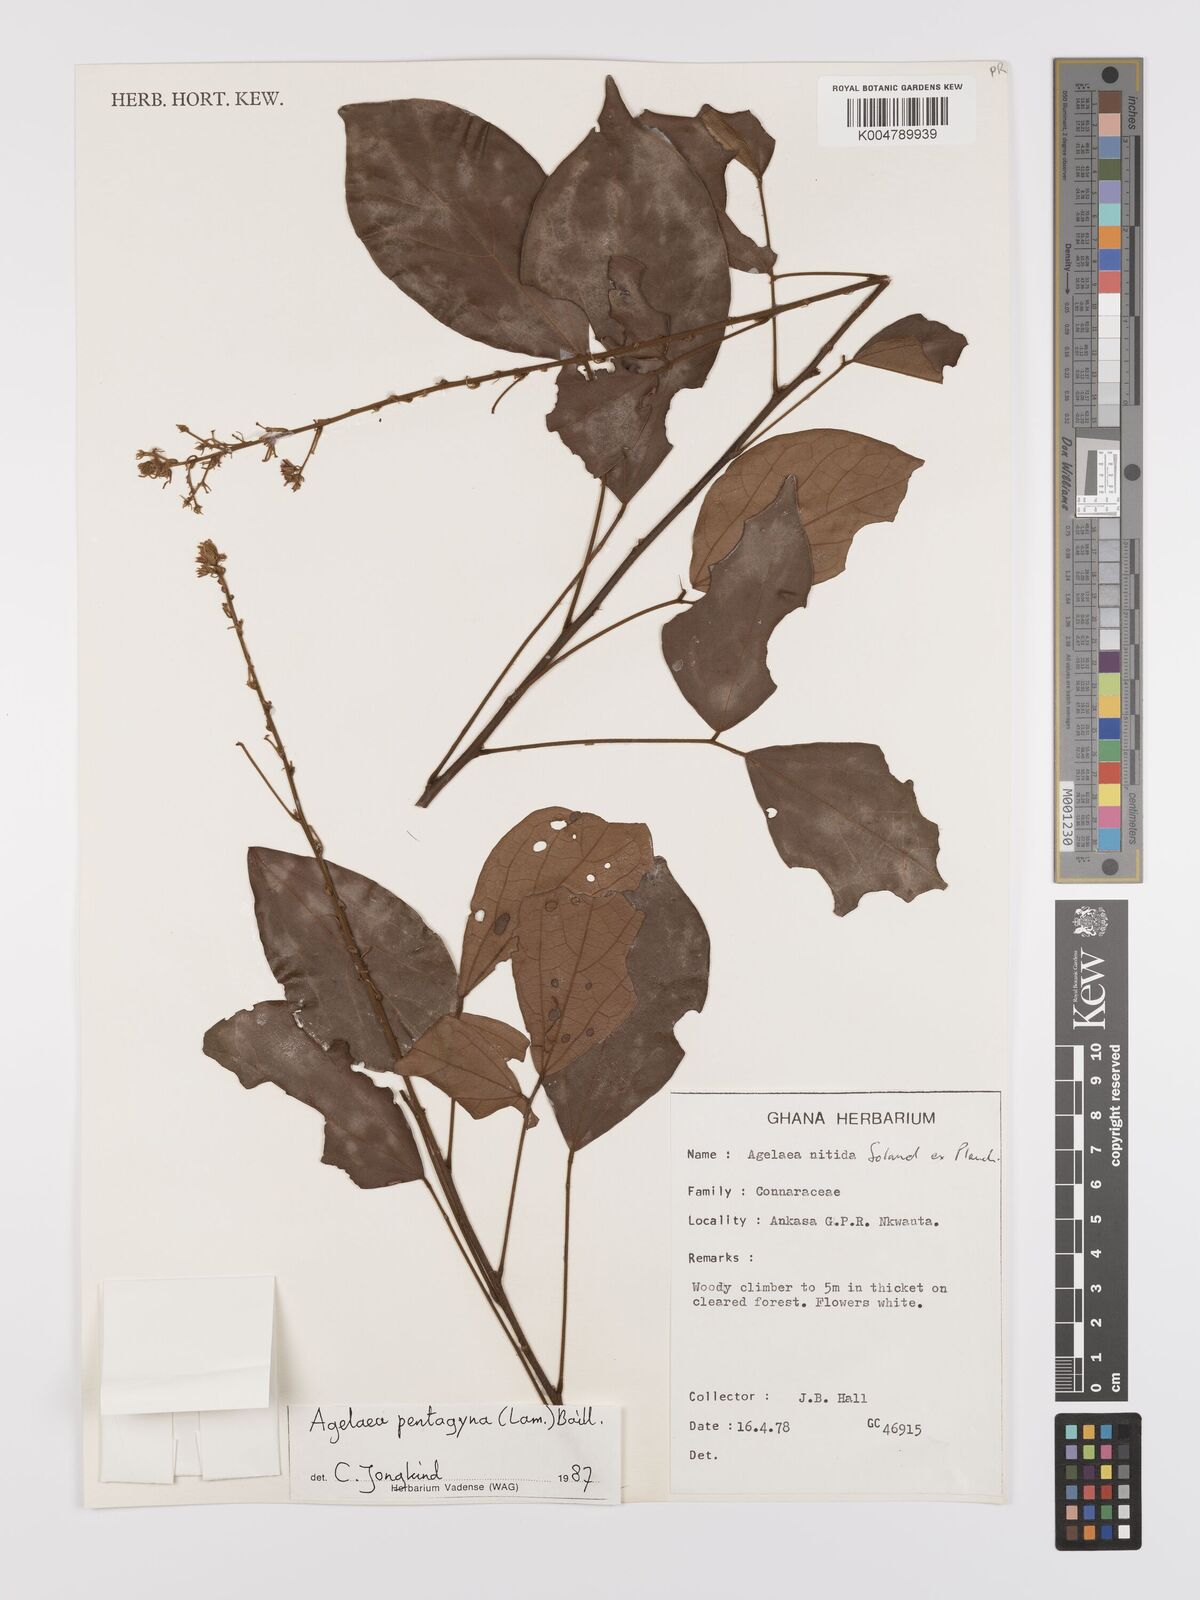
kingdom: Plantae
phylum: Tracheophyta
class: Magnoliopsida
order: Oxalidales
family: Connaraceae
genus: Agelaea
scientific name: Agelaea pentagyna
